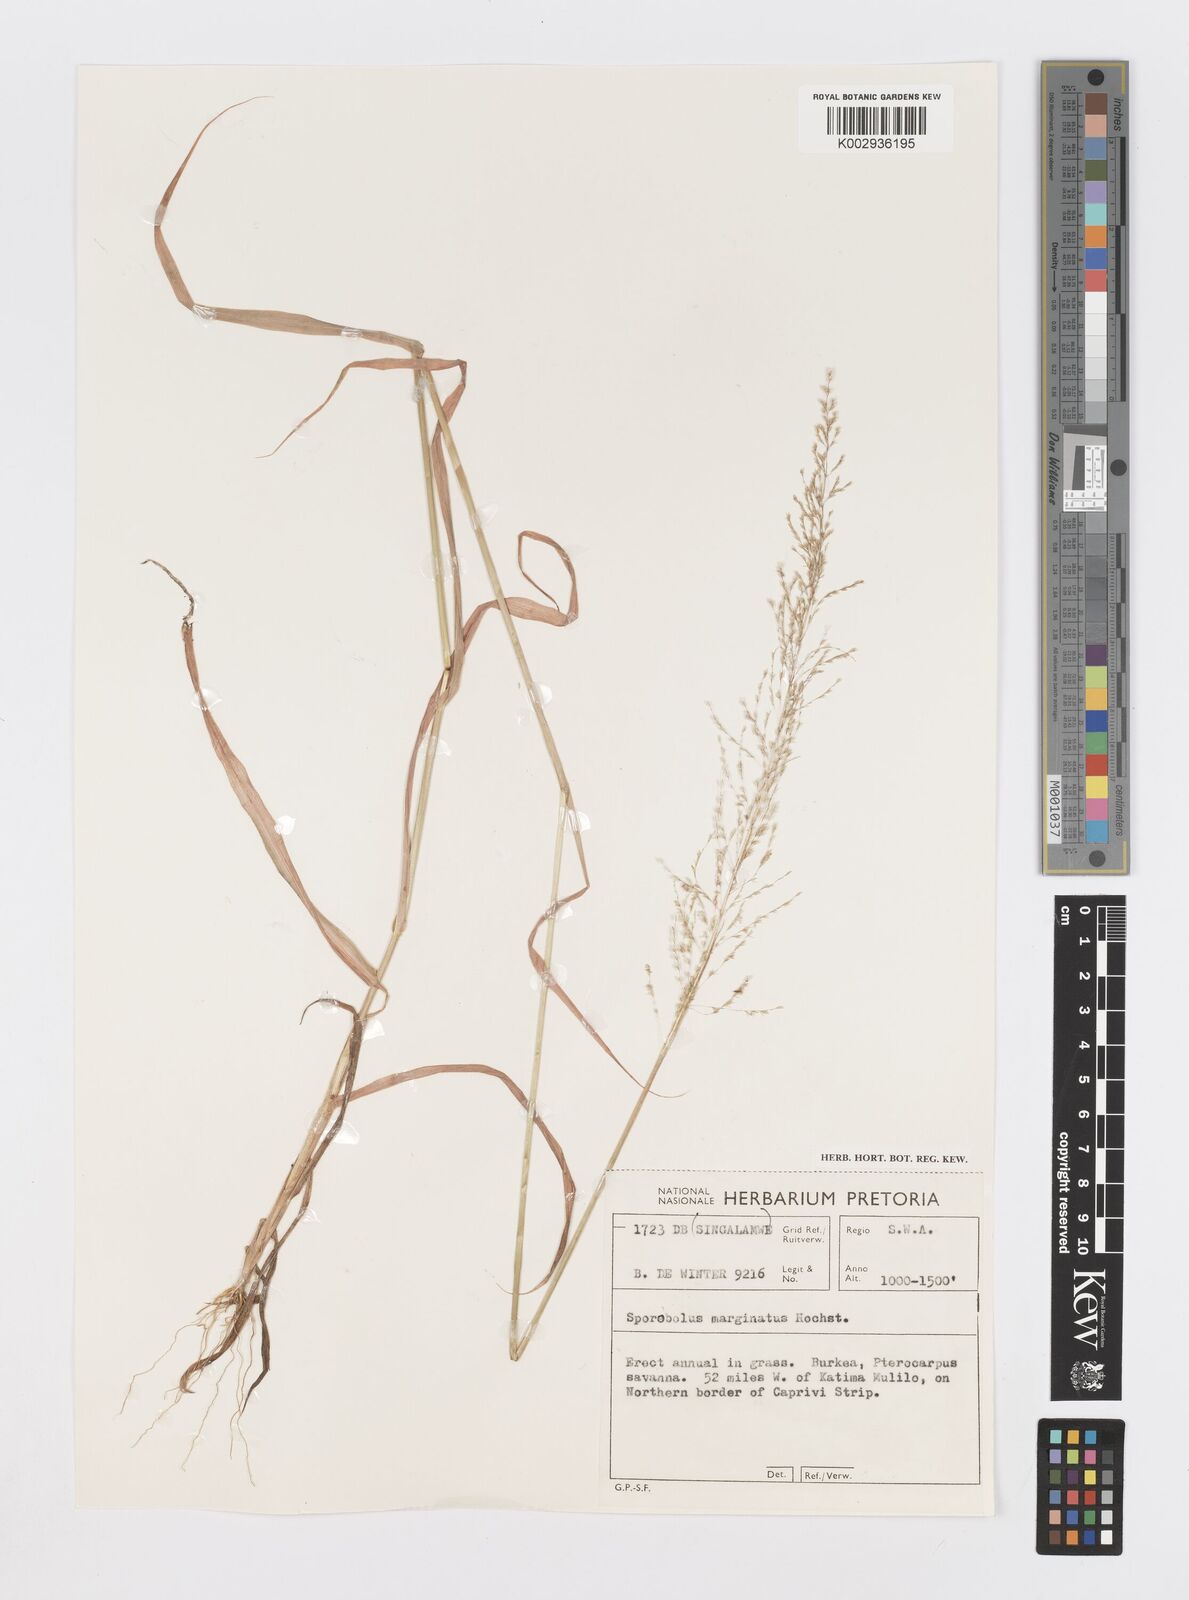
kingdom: Plantae
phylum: Tracheophyta
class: Liliopsida
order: Poales
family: Poaceae
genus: Sporobolus
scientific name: Sporobolus ioclados
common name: Pan dropseed
